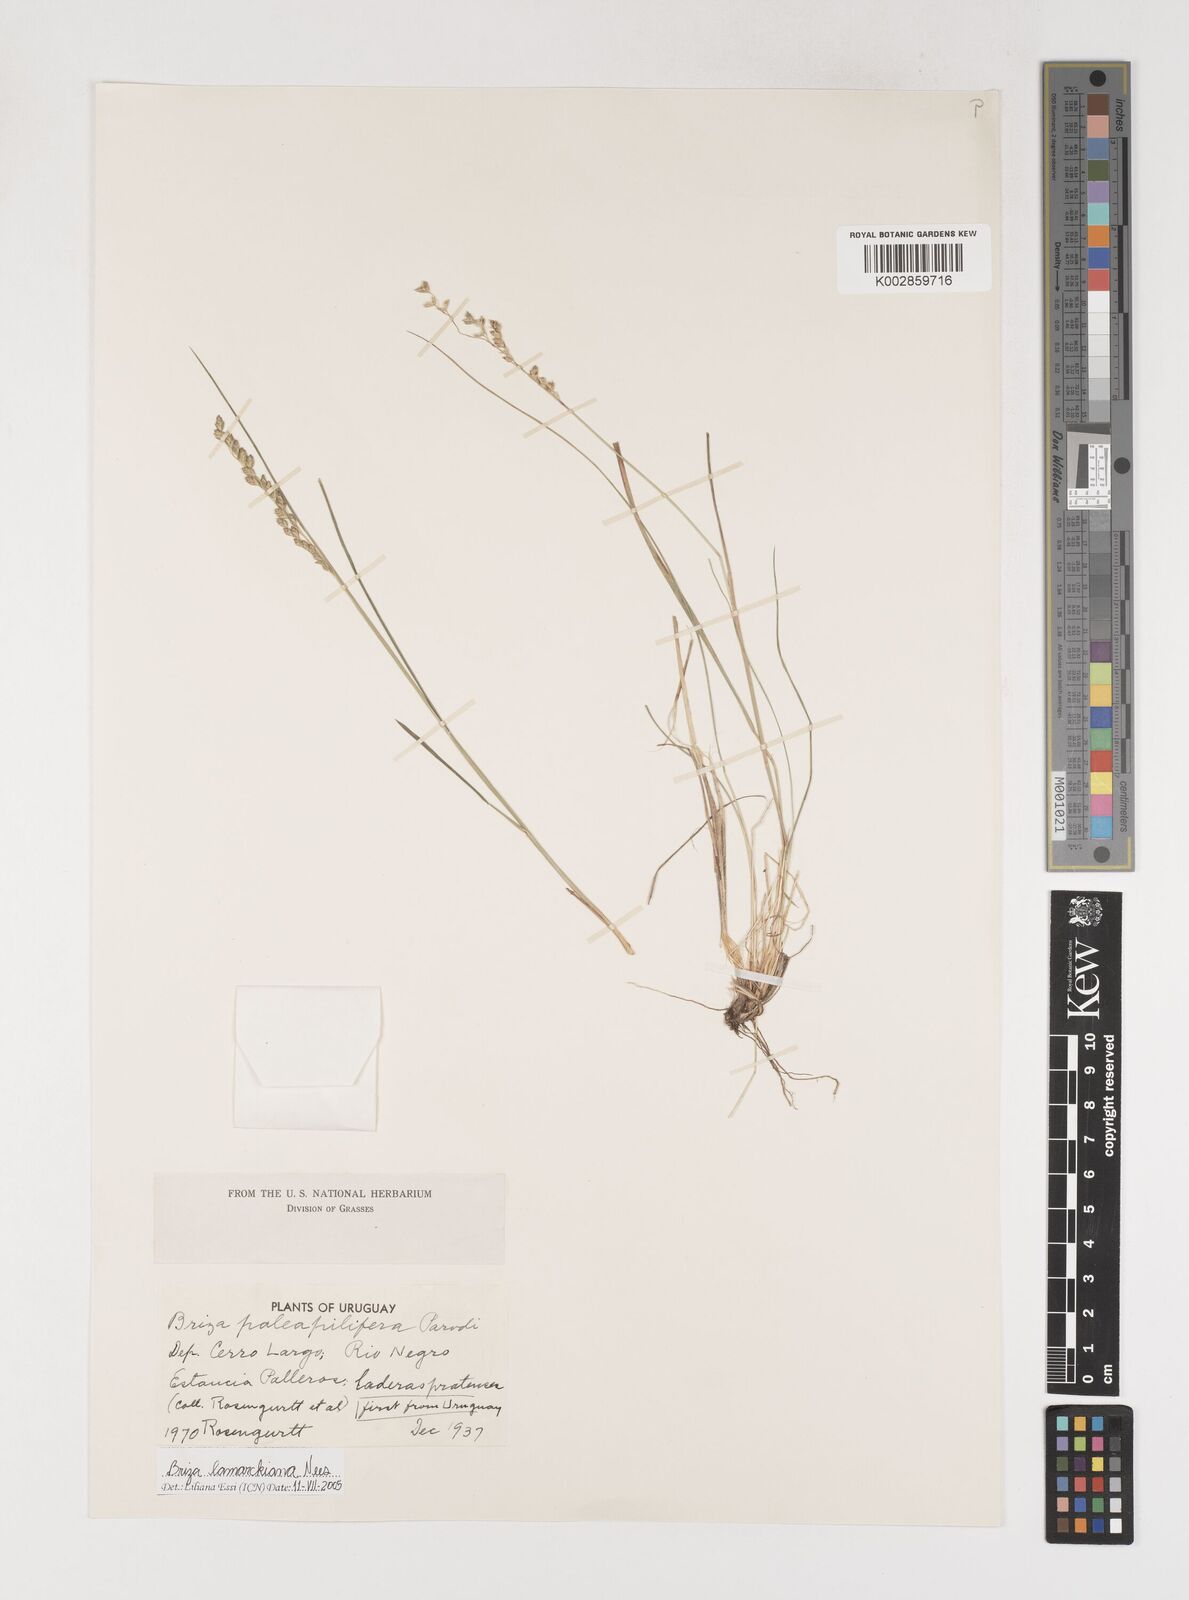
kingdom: Plantae
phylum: Tracheophyta
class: Liliopsida
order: Poales
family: Poaceae
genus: Chascolytrum
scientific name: Chascolytrum lamarckianum
